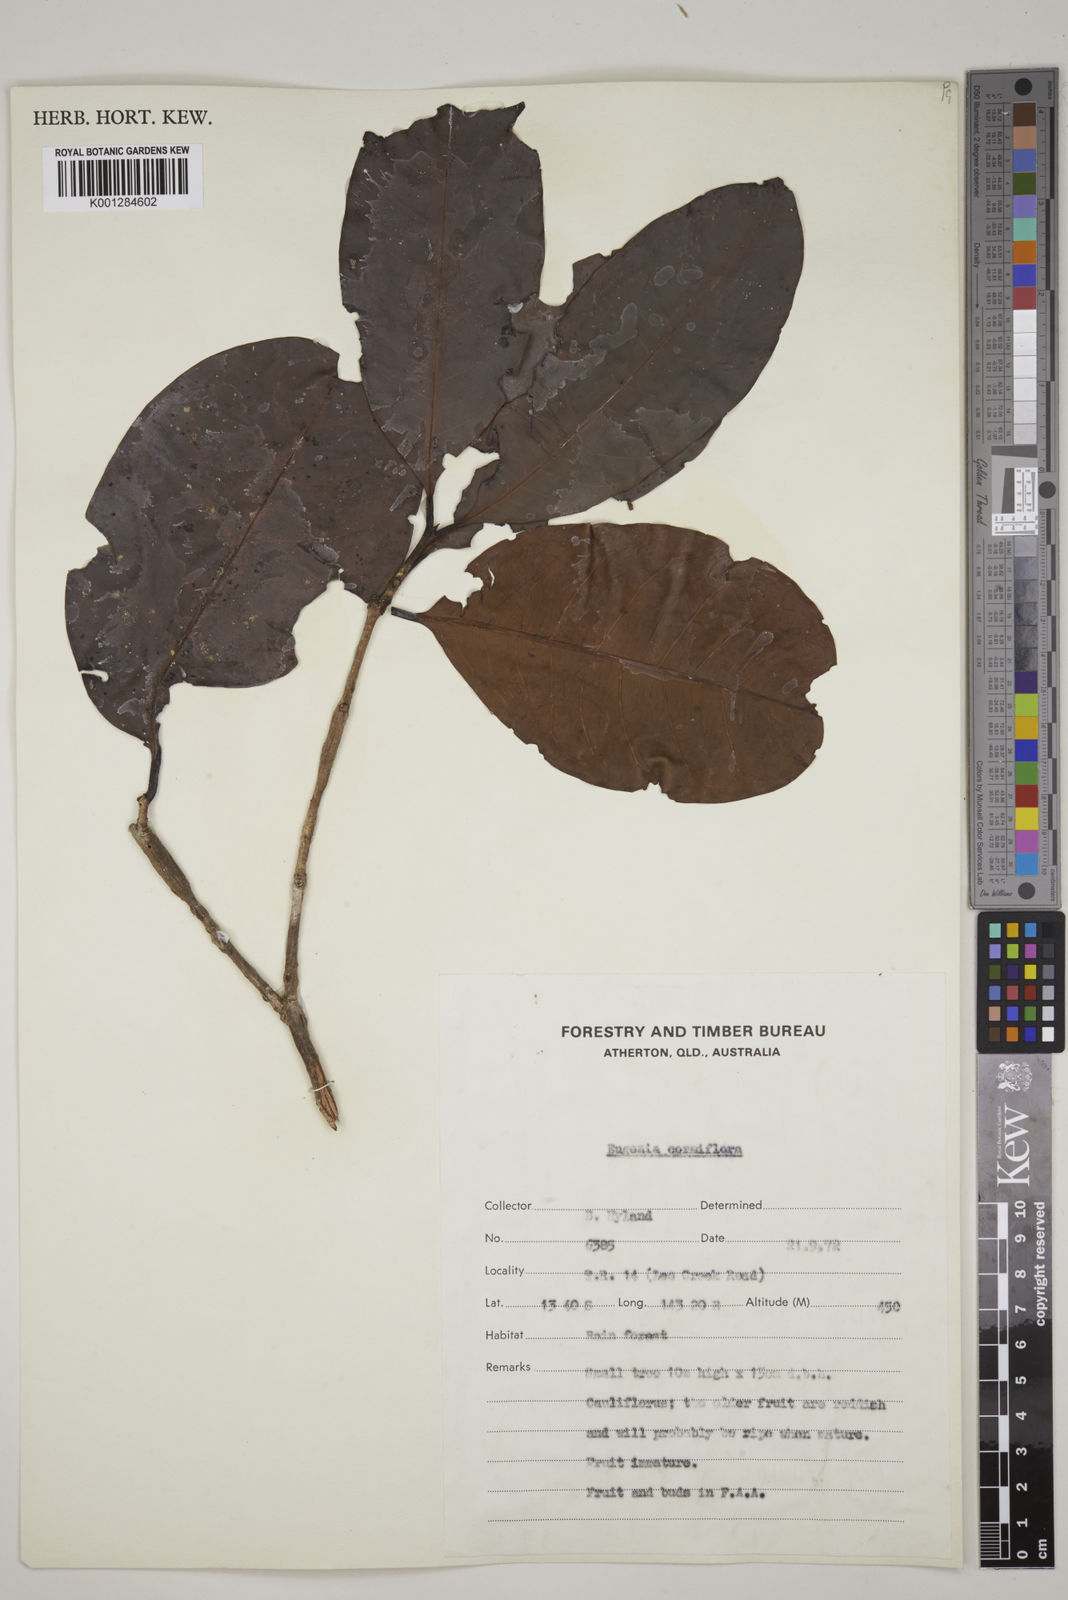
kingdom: Plantae
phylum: Tracheophyta
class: Magnoliopsida
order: Myrtales
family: Myrtaceae
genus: Syzygium
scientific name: Syzygium cormiflorum
